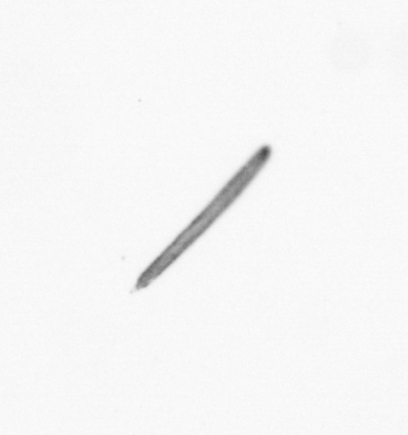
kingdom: Chromista
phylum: Ochrophyta
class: Bacillariophyceae
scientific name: Bacillariophyceae
